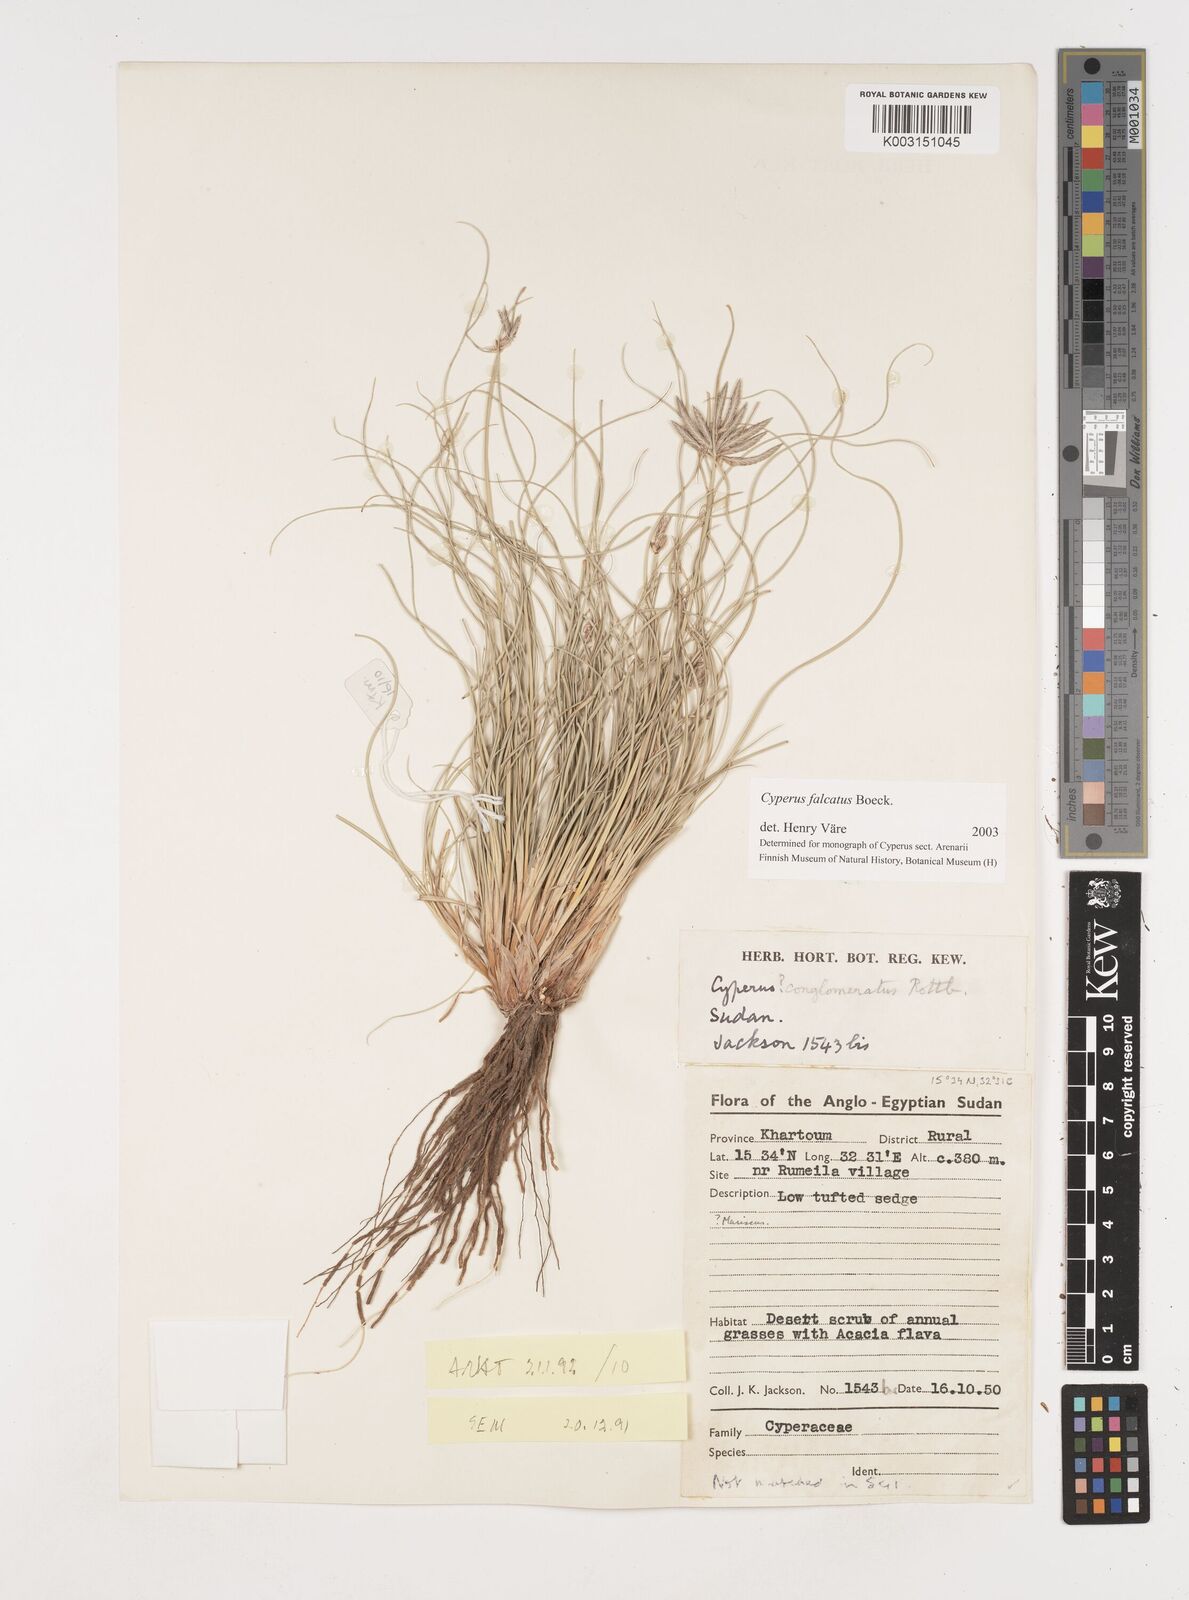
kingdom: Plantae
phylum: Tracheophyta
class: Liliopsida
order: Poales
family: Cyperaceae
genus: Cyperus
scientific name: Cyperus conglomeratus
